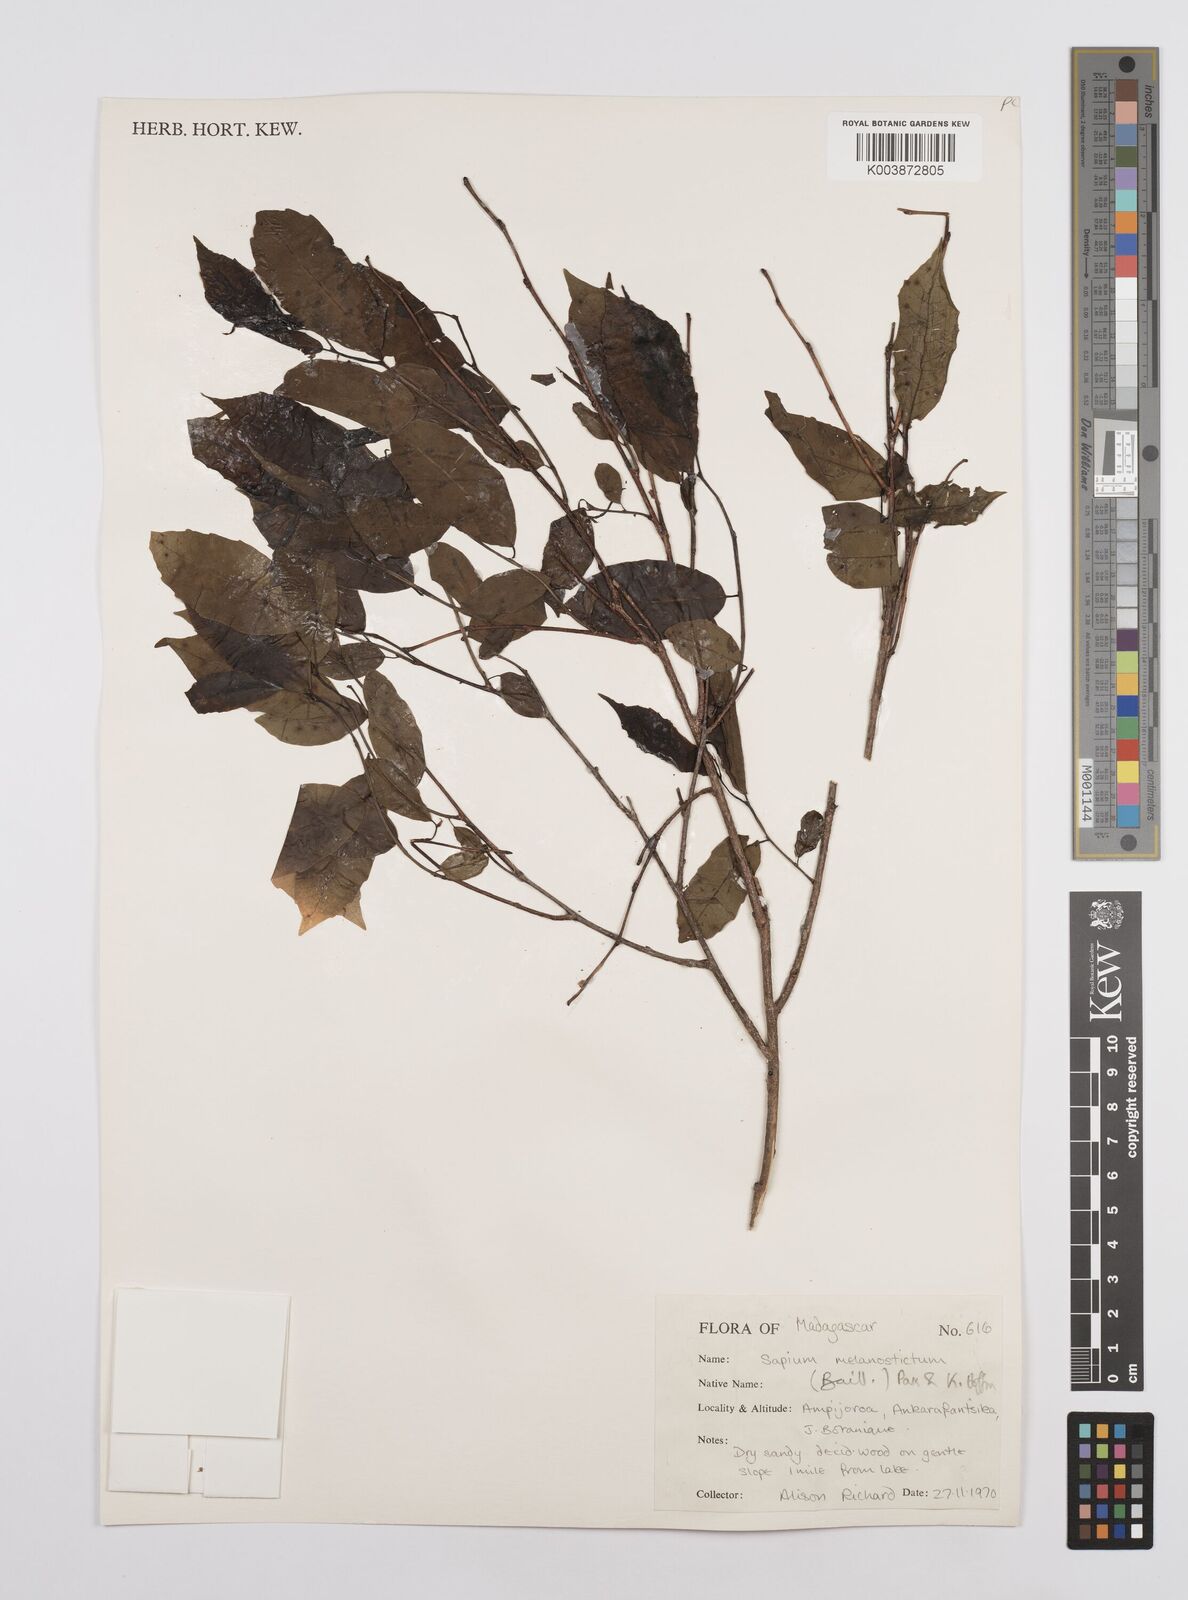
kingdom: Plantae
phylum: Tracheophyta
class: Magnoliopsida
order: Malpighiales
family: Euphorbiaceae
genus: Sclerocroton
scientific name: Sclerocroton melanostictus
